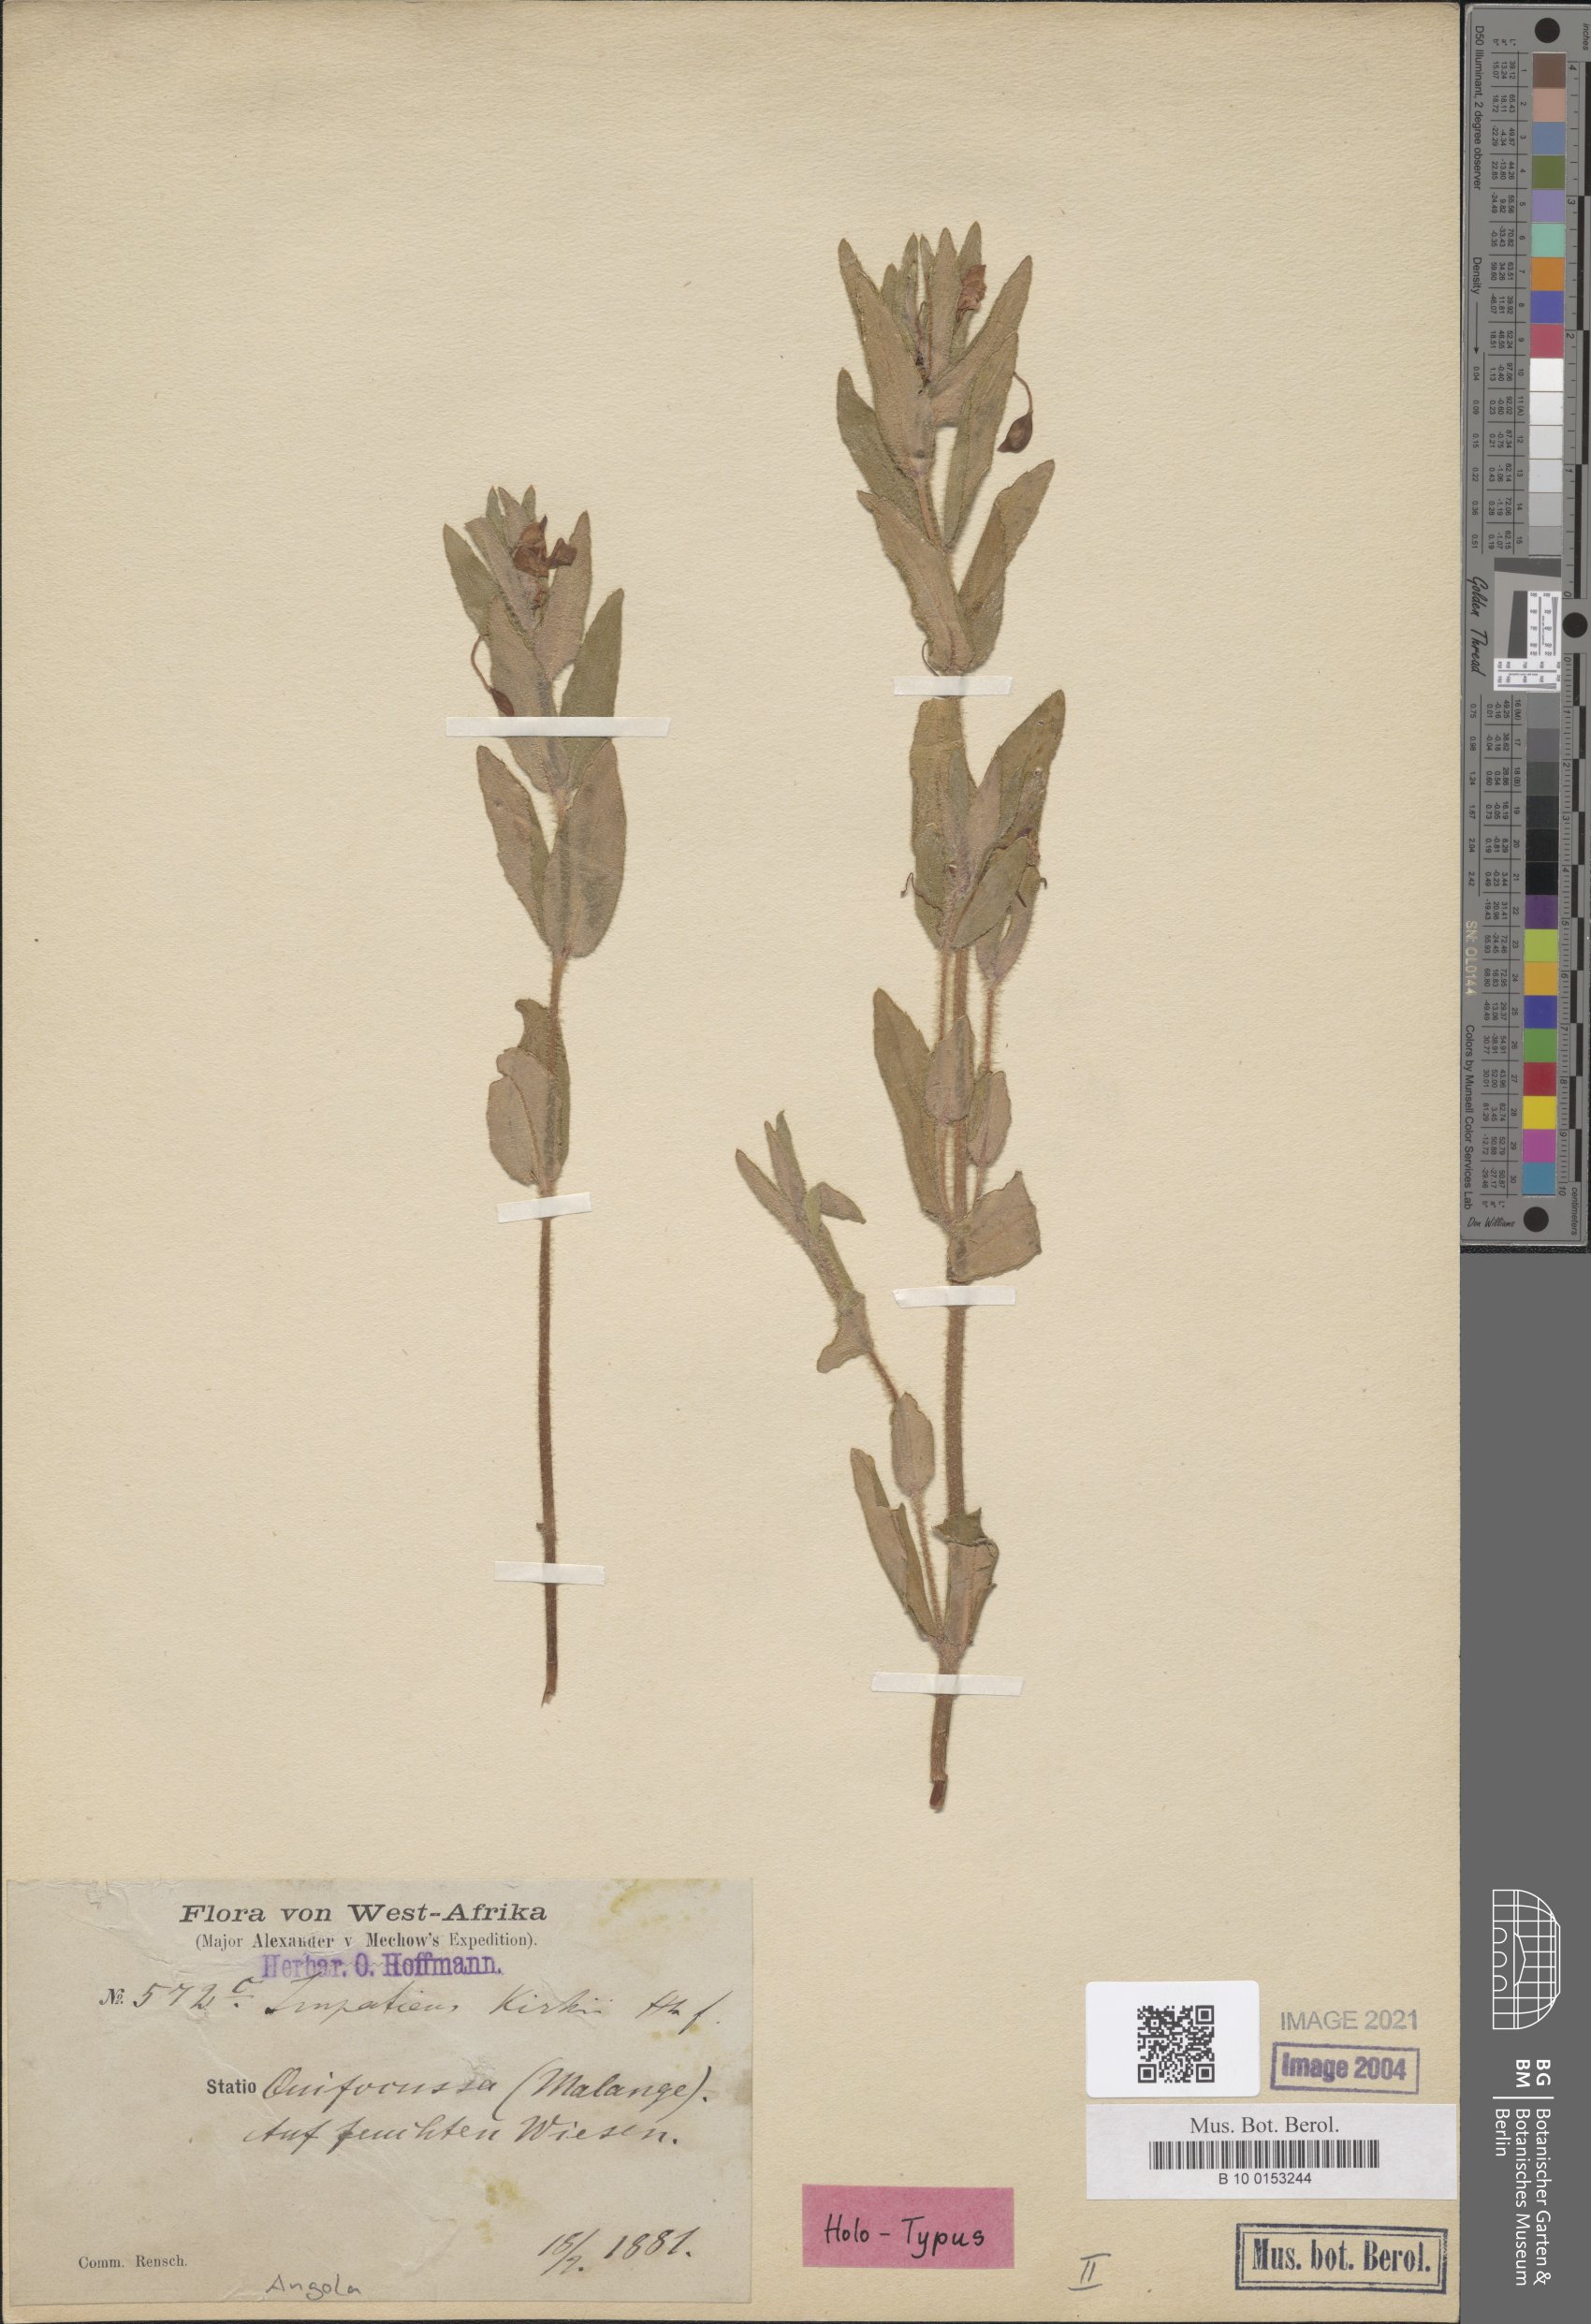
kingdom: Plantae
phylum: Tracheophyta
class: Magnoliopsida
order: Ericales
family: Balsaminaceae
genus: Impatiens
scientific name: Impatiens assurgens
